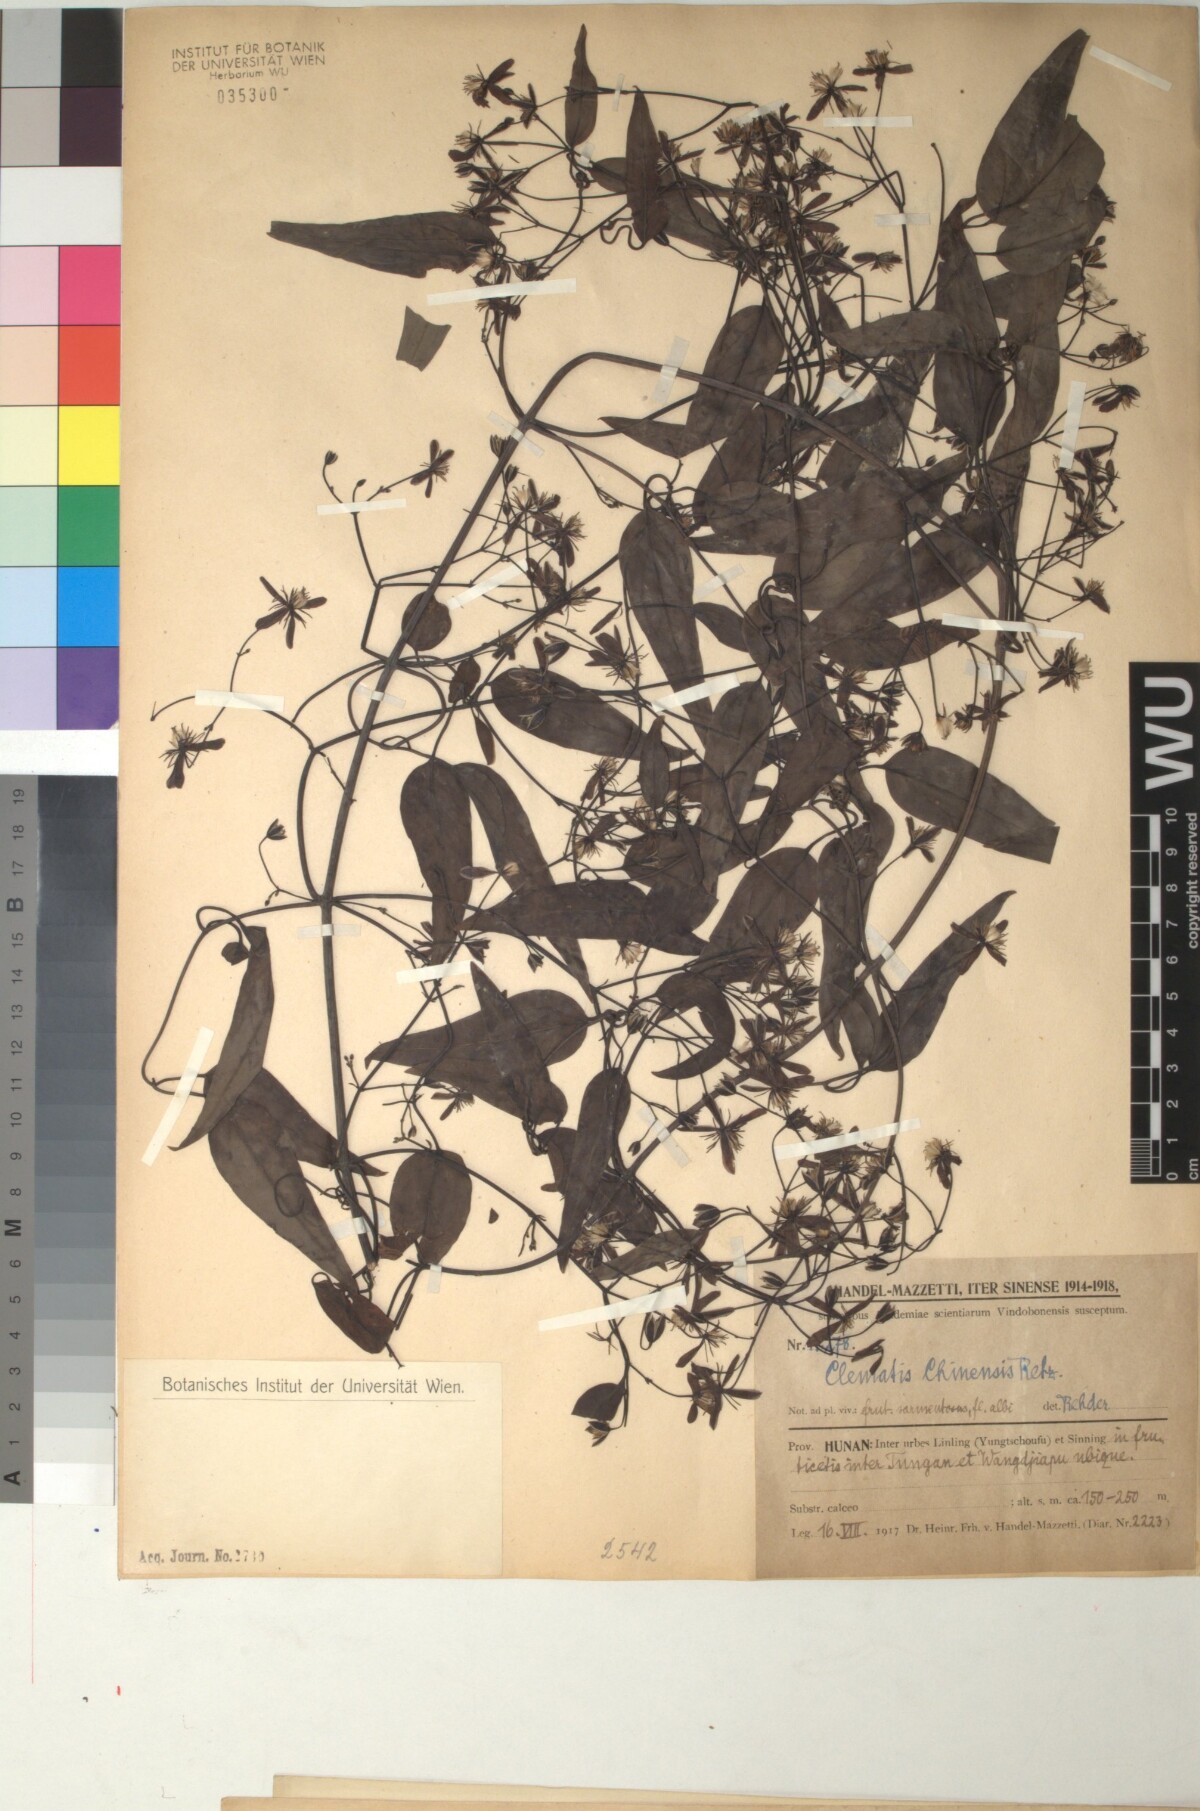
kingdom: Plantae
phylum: Tracheophyta
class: Magnoliopsida
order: Ranunculales
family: Ranunculaceae
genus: Clematis
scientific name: Clematis chinensis
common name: Chinese clematis
